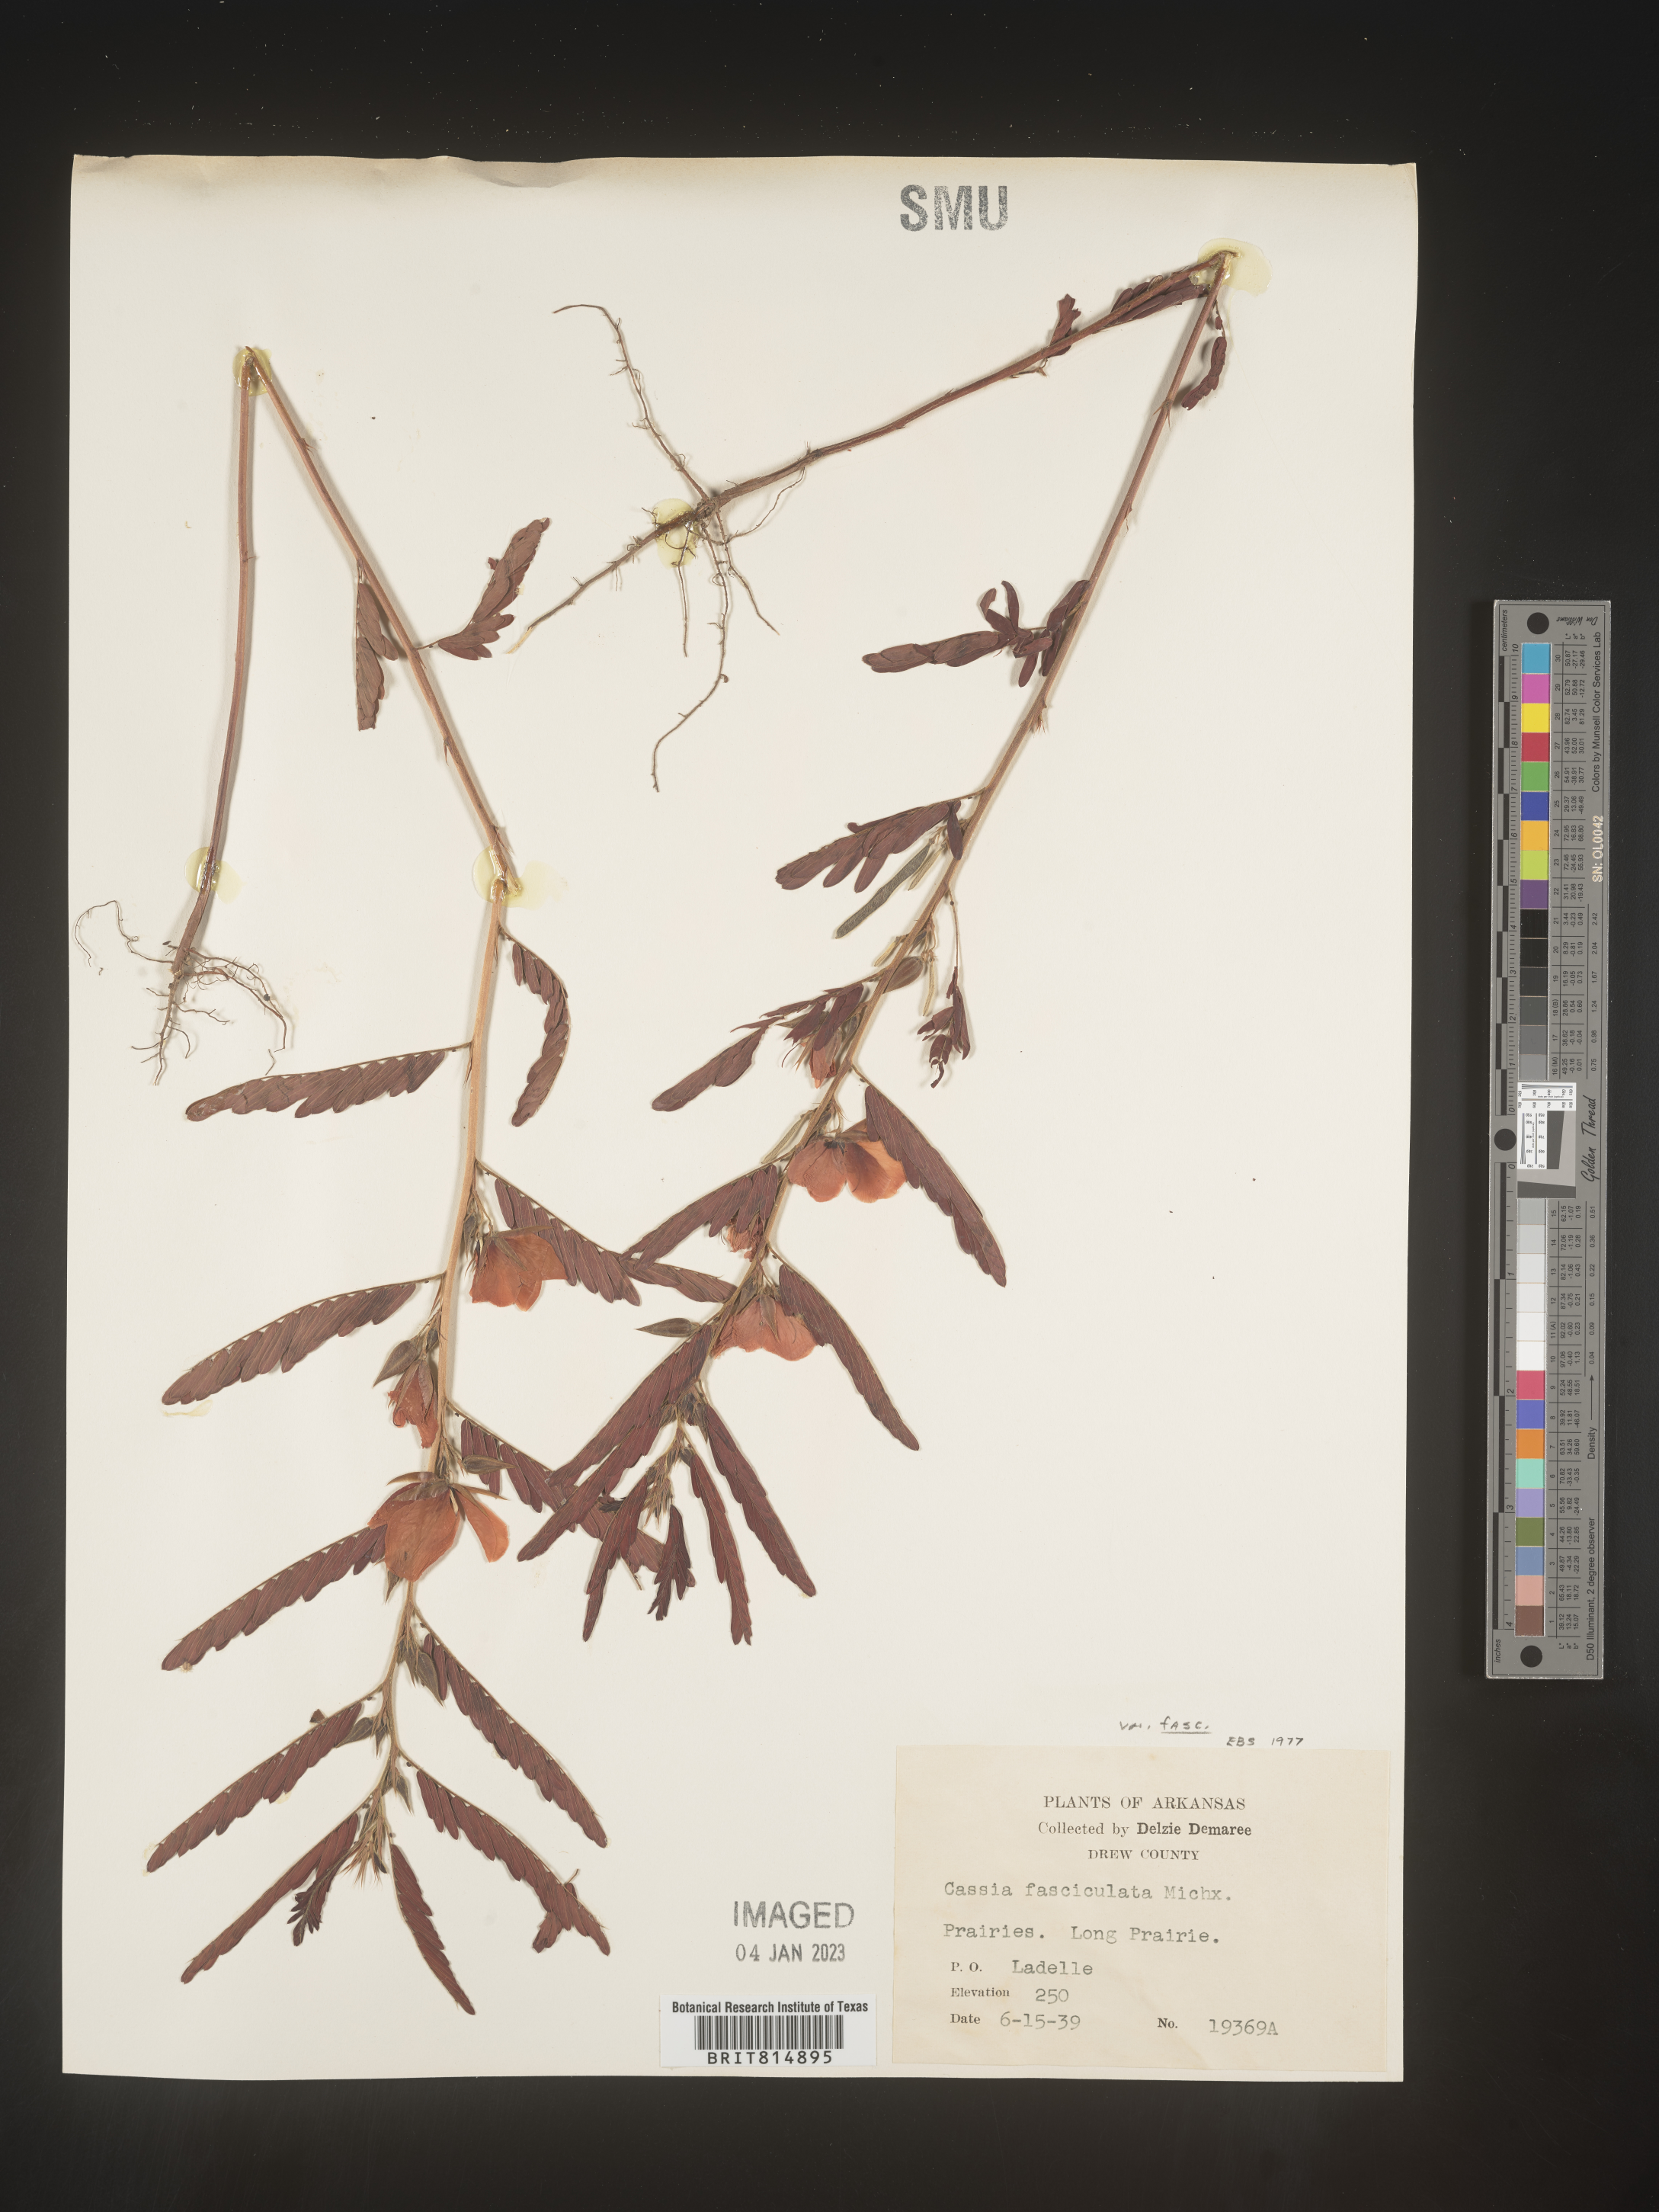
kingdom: Plantae
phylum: Tracheophyta
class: Magnoliopsida
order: Fabales
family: Fabaceae
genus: Chamaecrista
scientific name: Chamaecrista fasciculata
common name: Golden cassia
